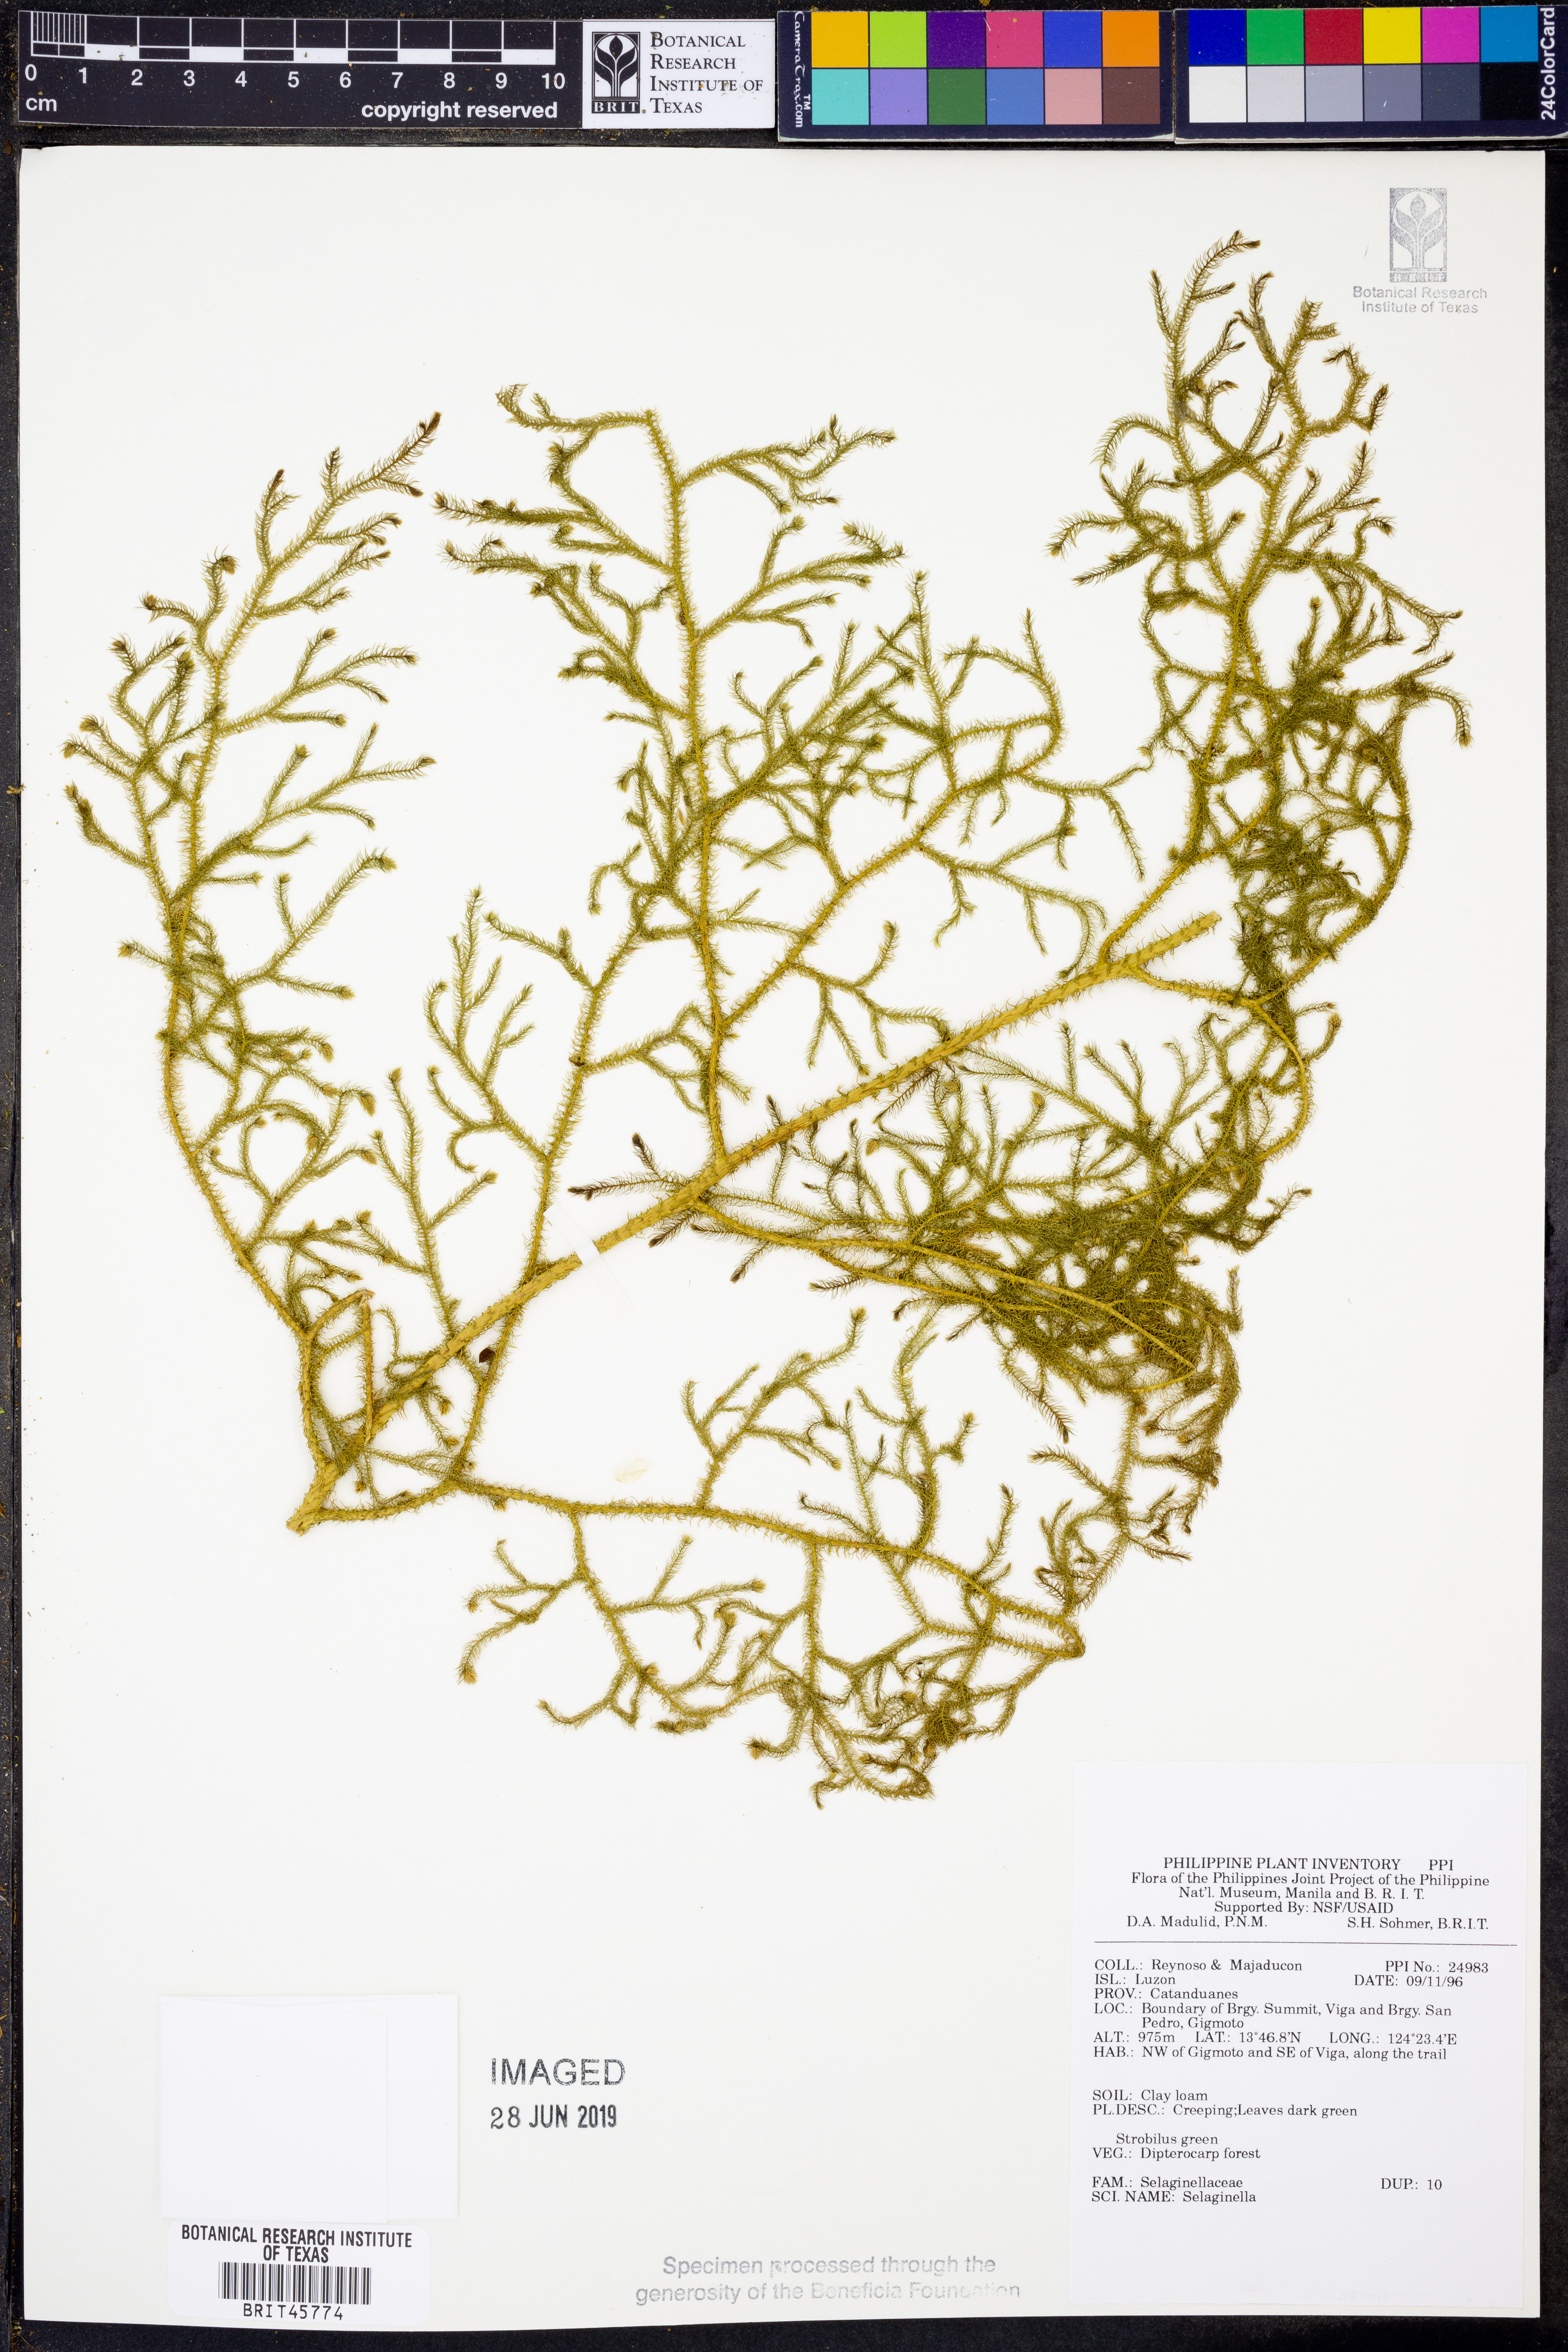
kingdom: Plantae
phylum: Tracheophyta
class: Lycopodiopsida
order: Selaginellales
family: Selaginellaceae
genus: Selaginella
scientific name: Selaginella
